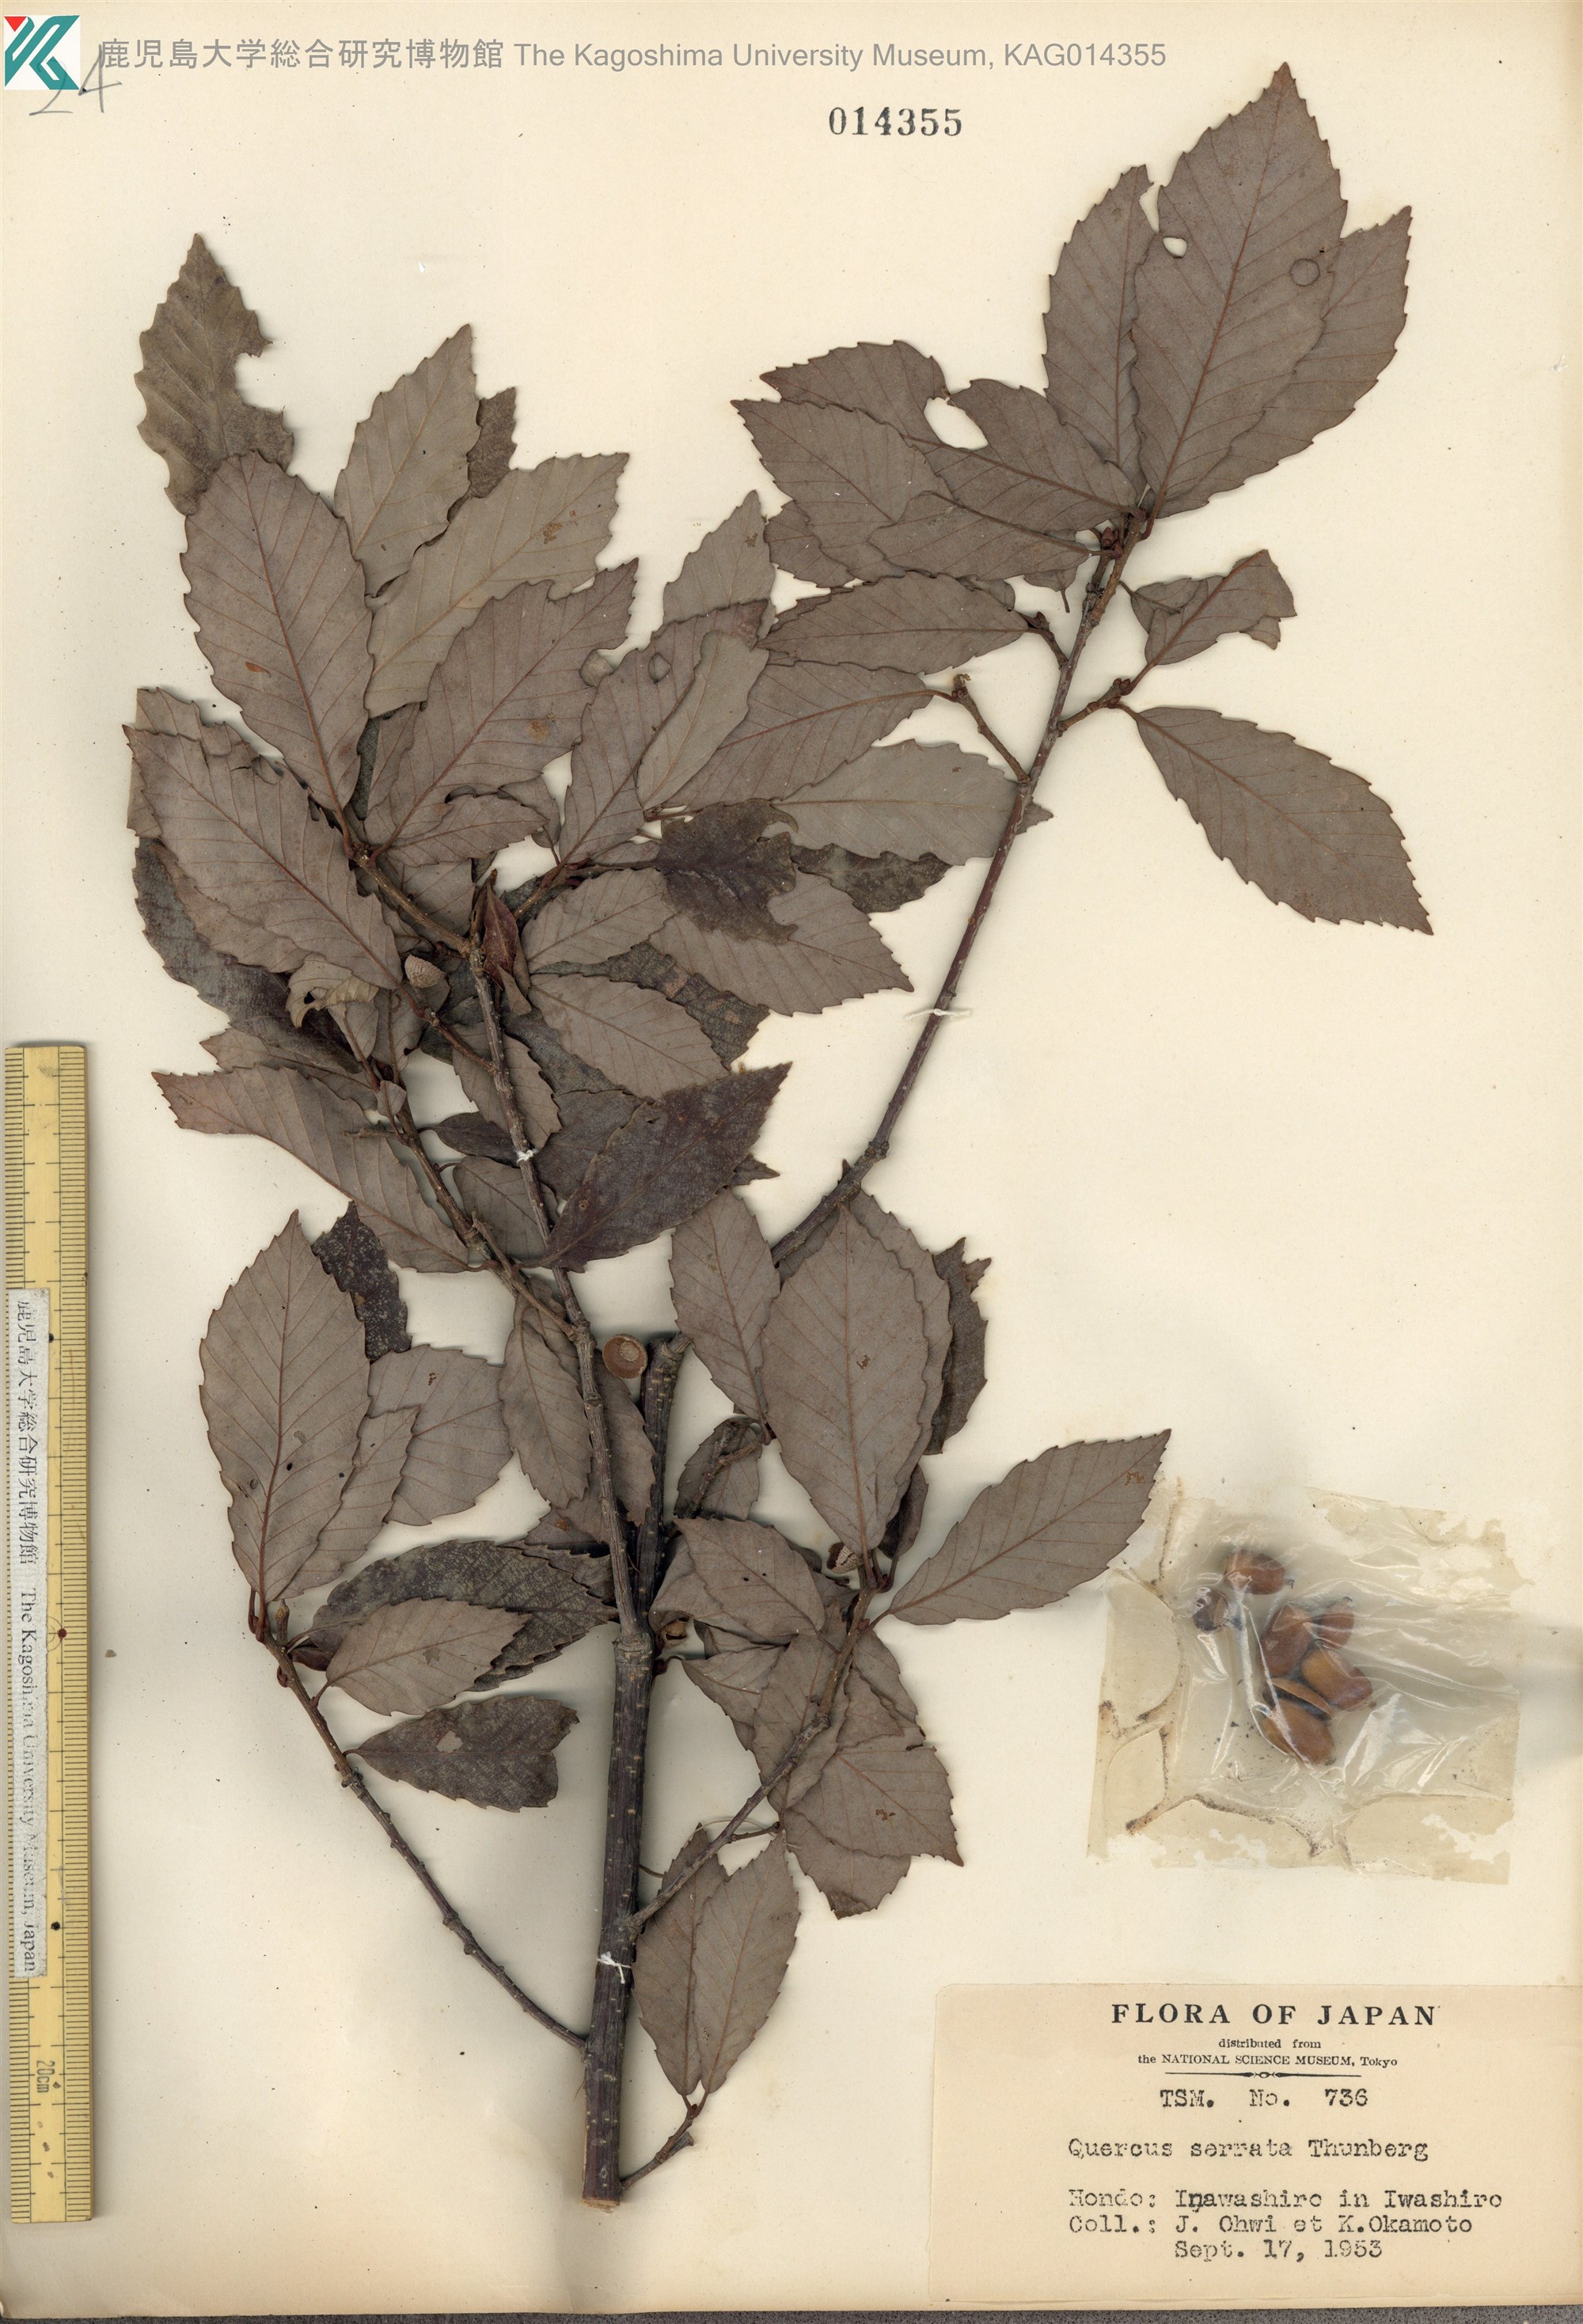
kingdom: Plantae
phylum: Tracheophyta
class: Magnoliopsida
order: Fagales
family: Fagaceae
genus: Quercus
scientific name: Quercus serrata
